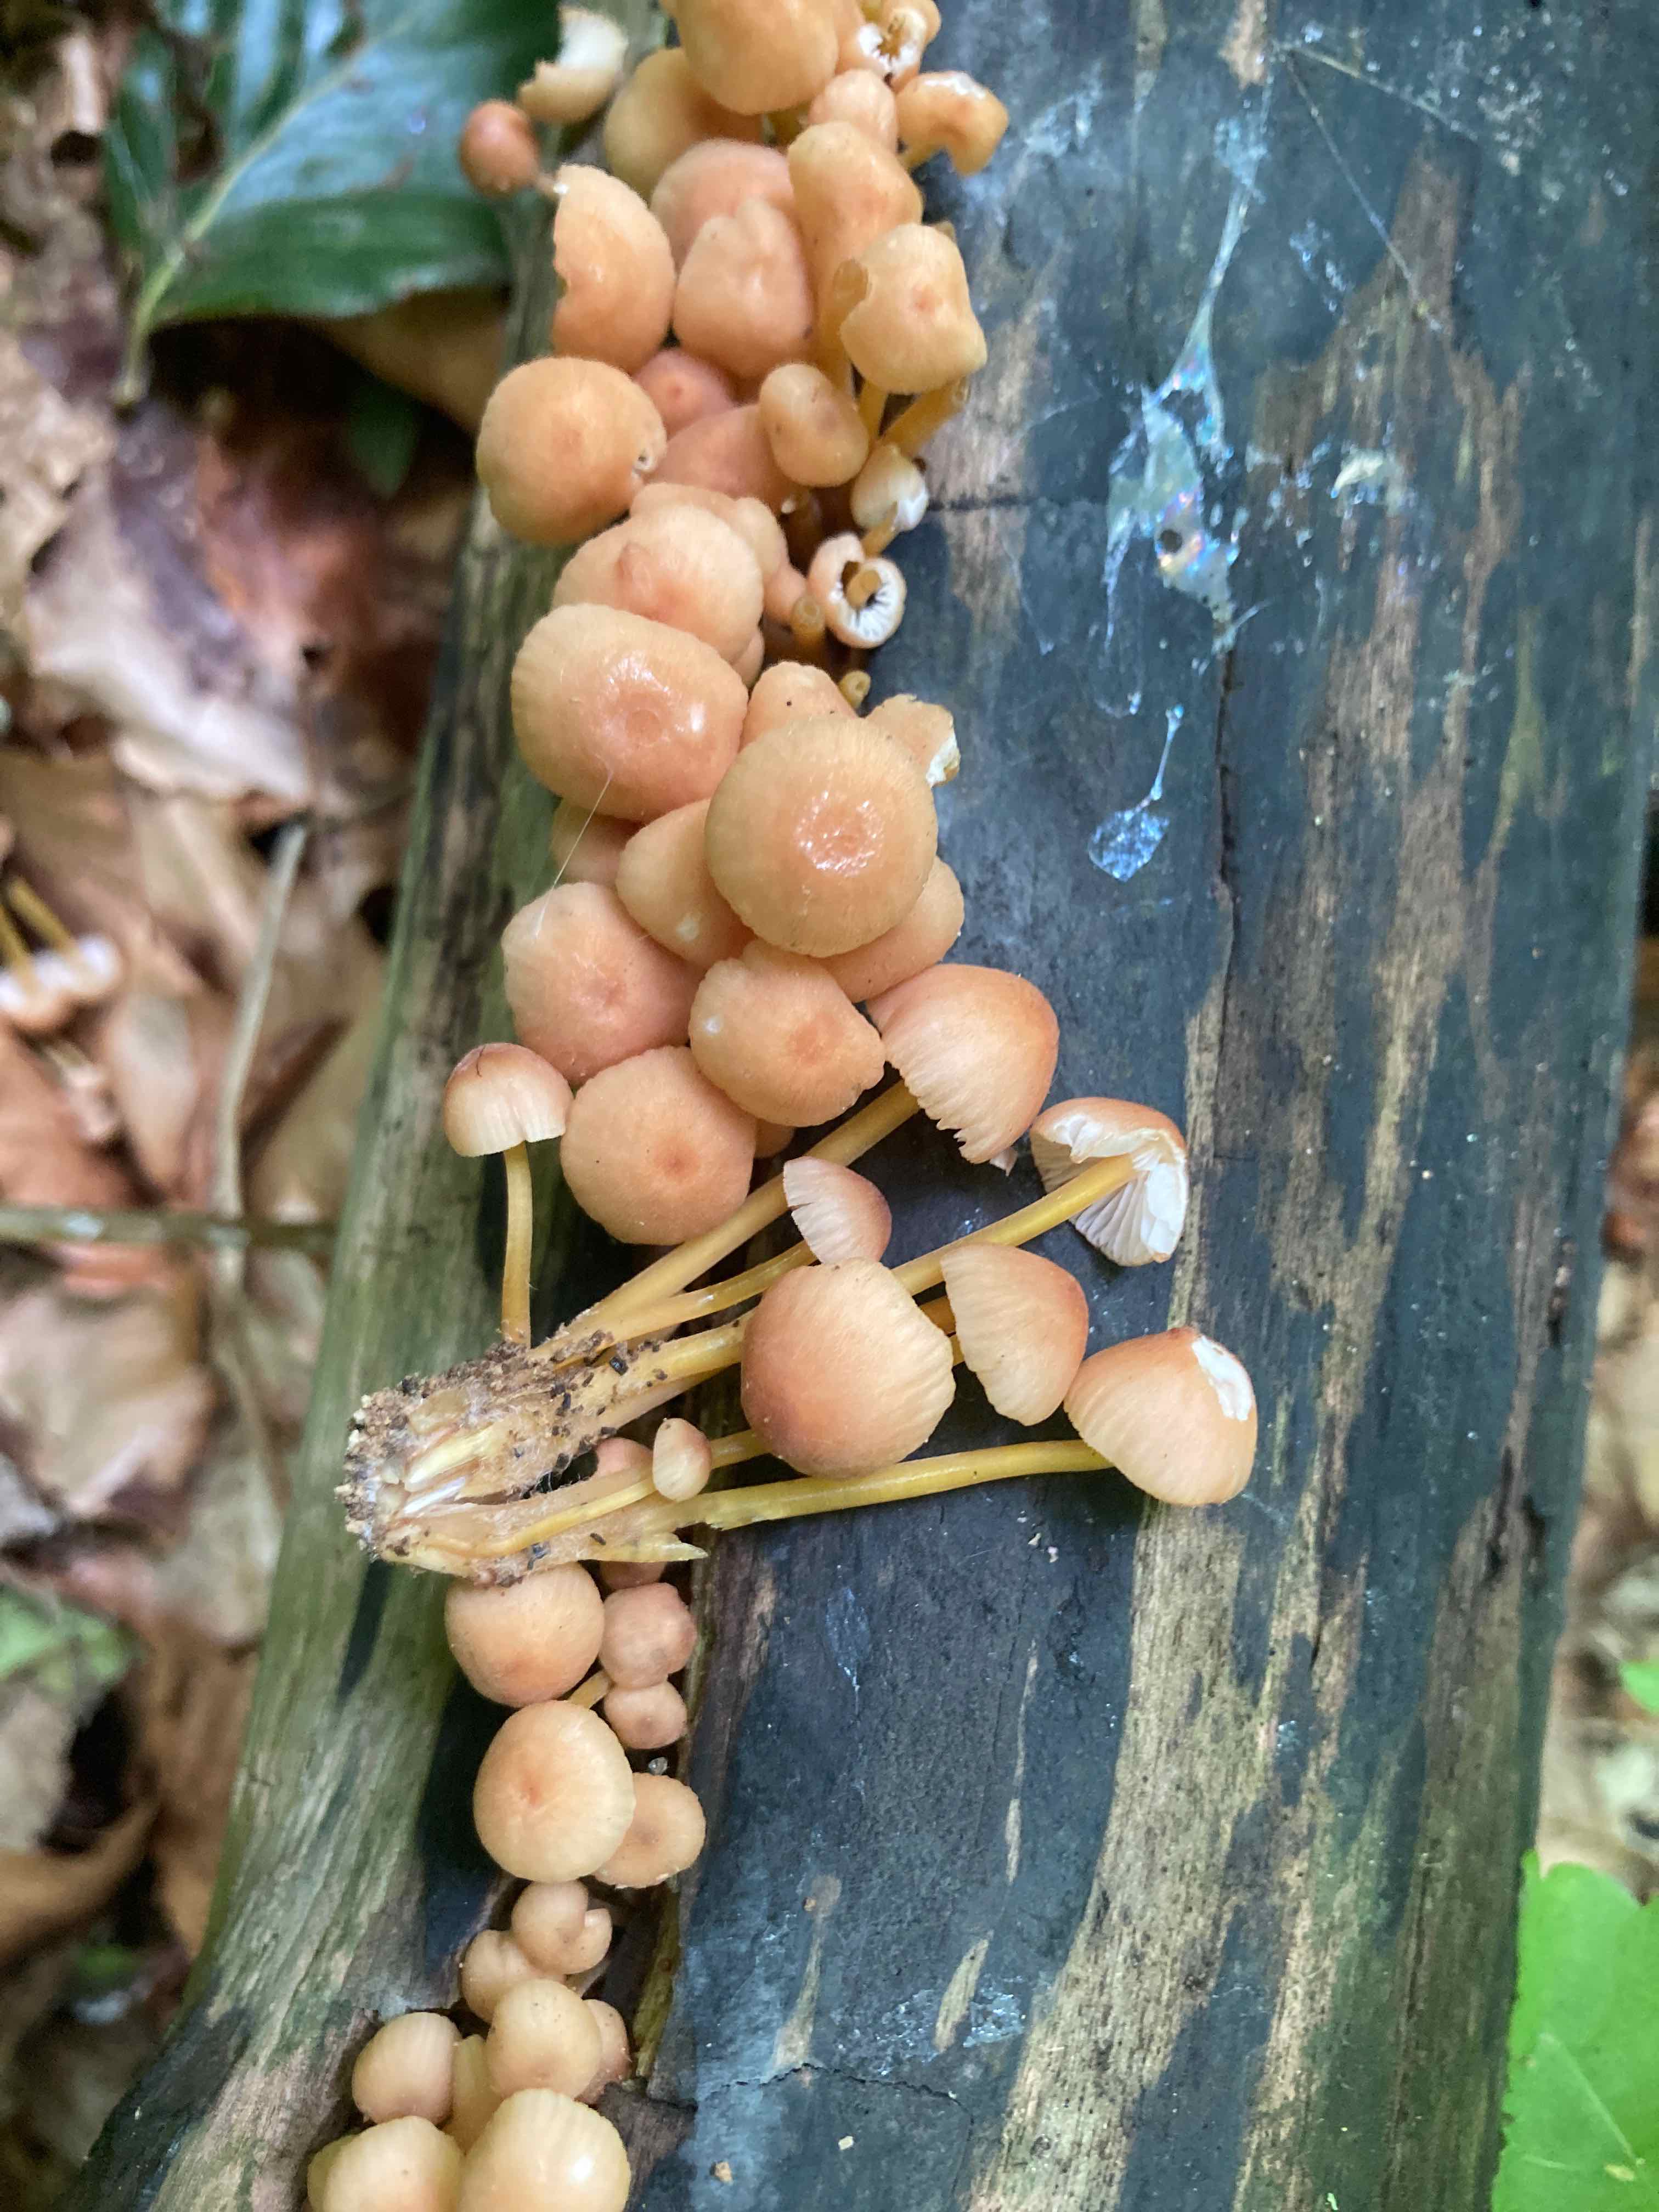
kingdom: Fungi
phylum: Basidiomycota
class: Agaricomycetes
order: Agaricales
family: Mycenaceae
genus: Mycena
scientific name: Mycena renati
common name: smuk huesvamp
